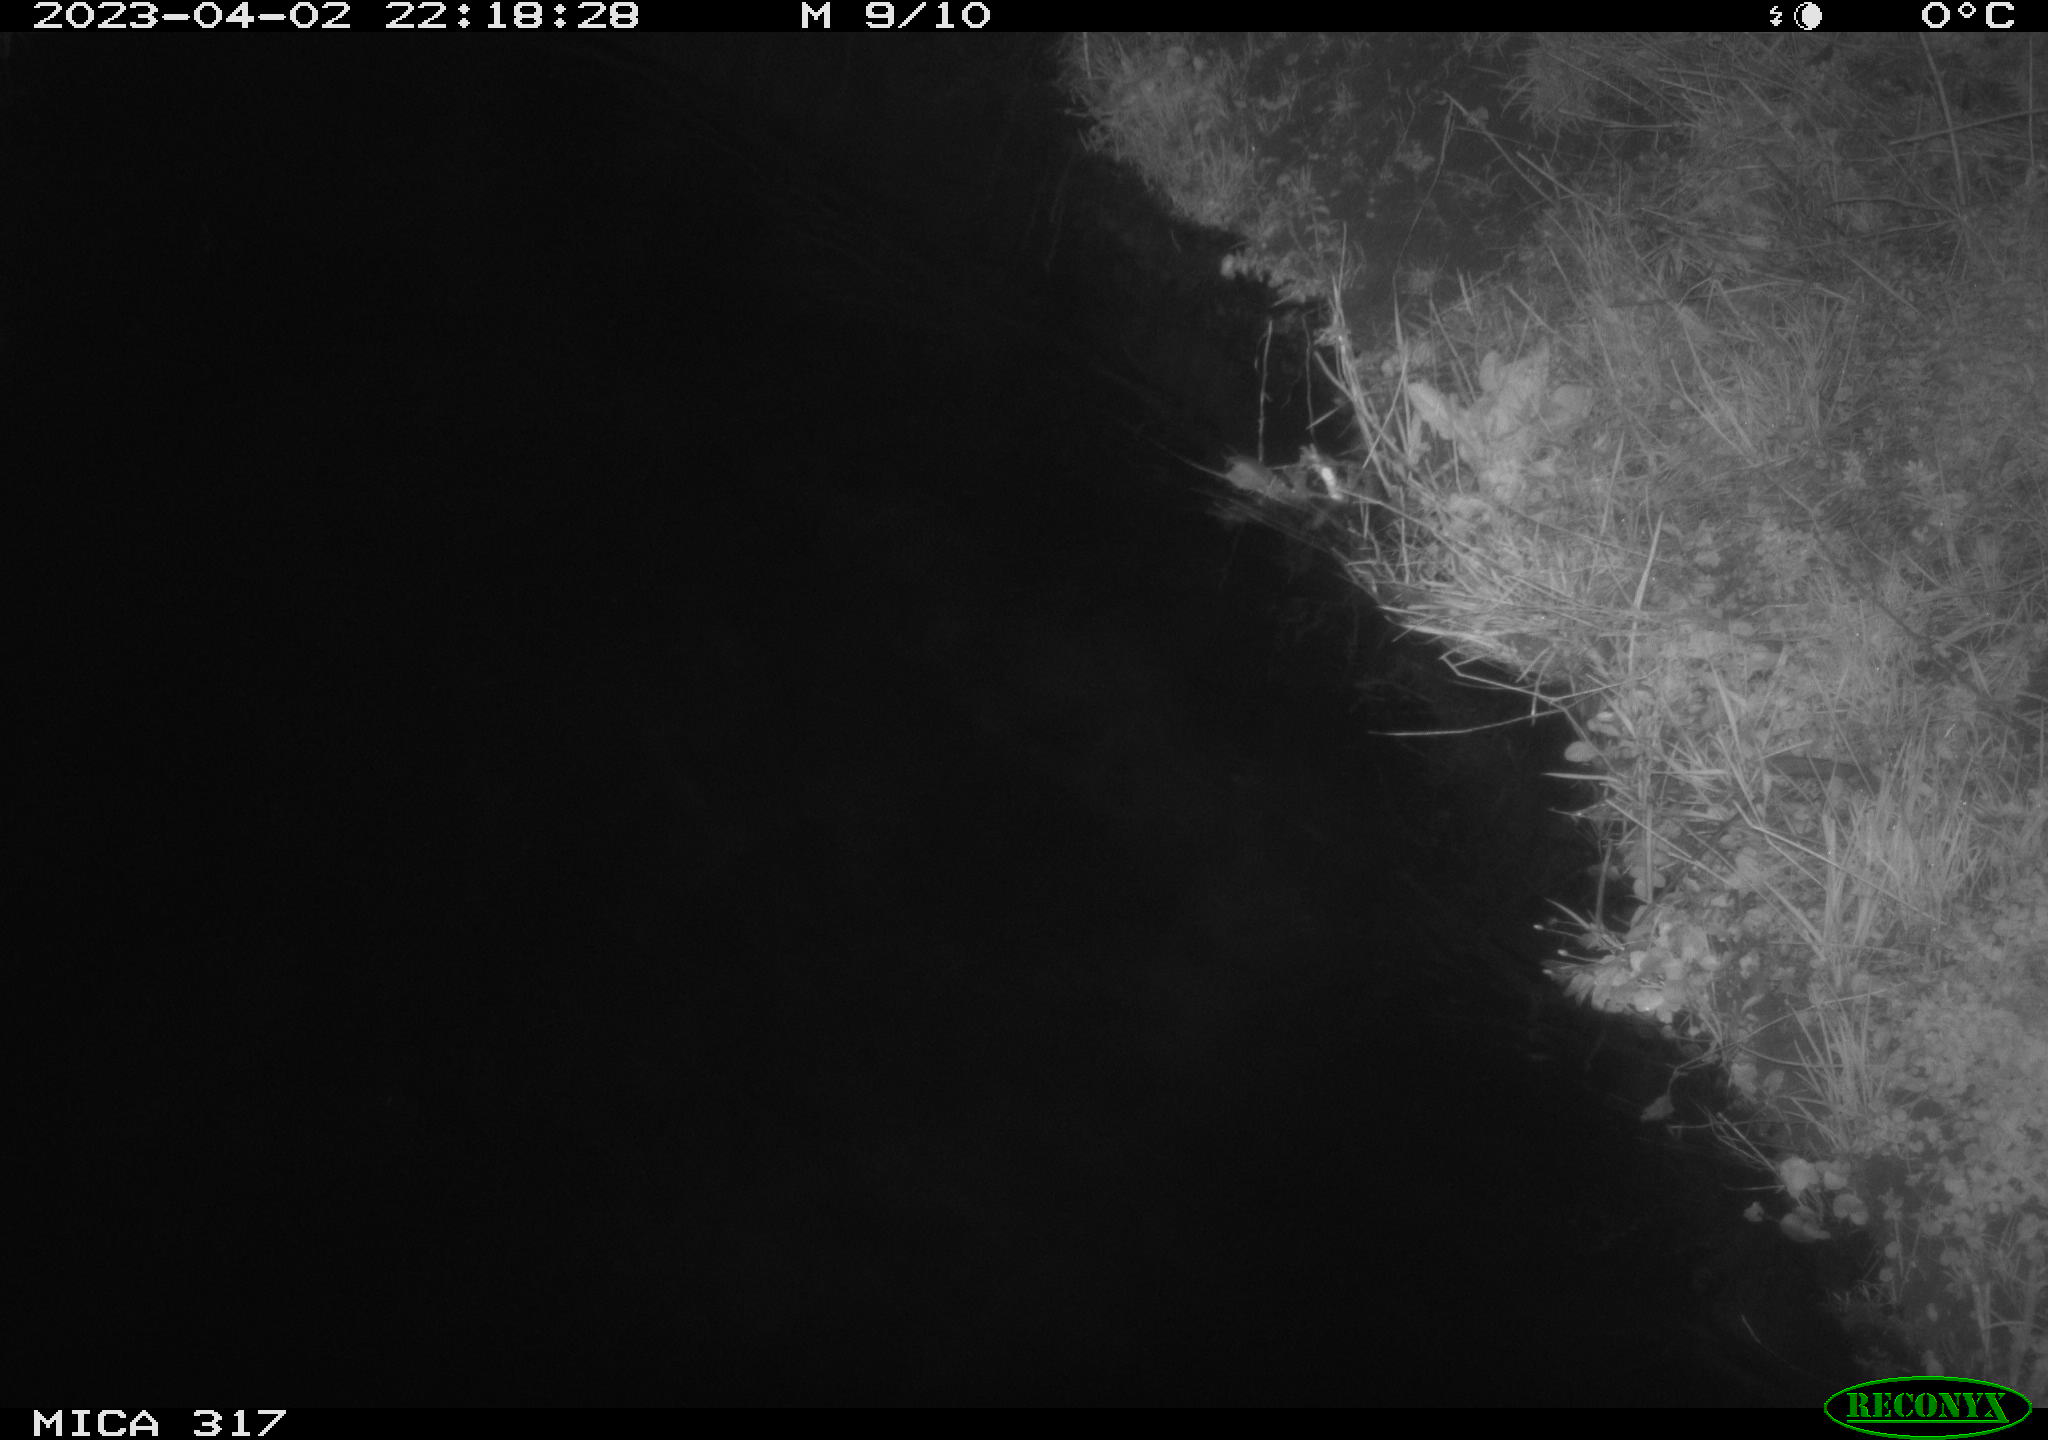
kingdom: Animalia
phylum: Chordata
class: Aves
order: Anseriformes
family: Anatidae
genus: Anas
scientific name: Anas
